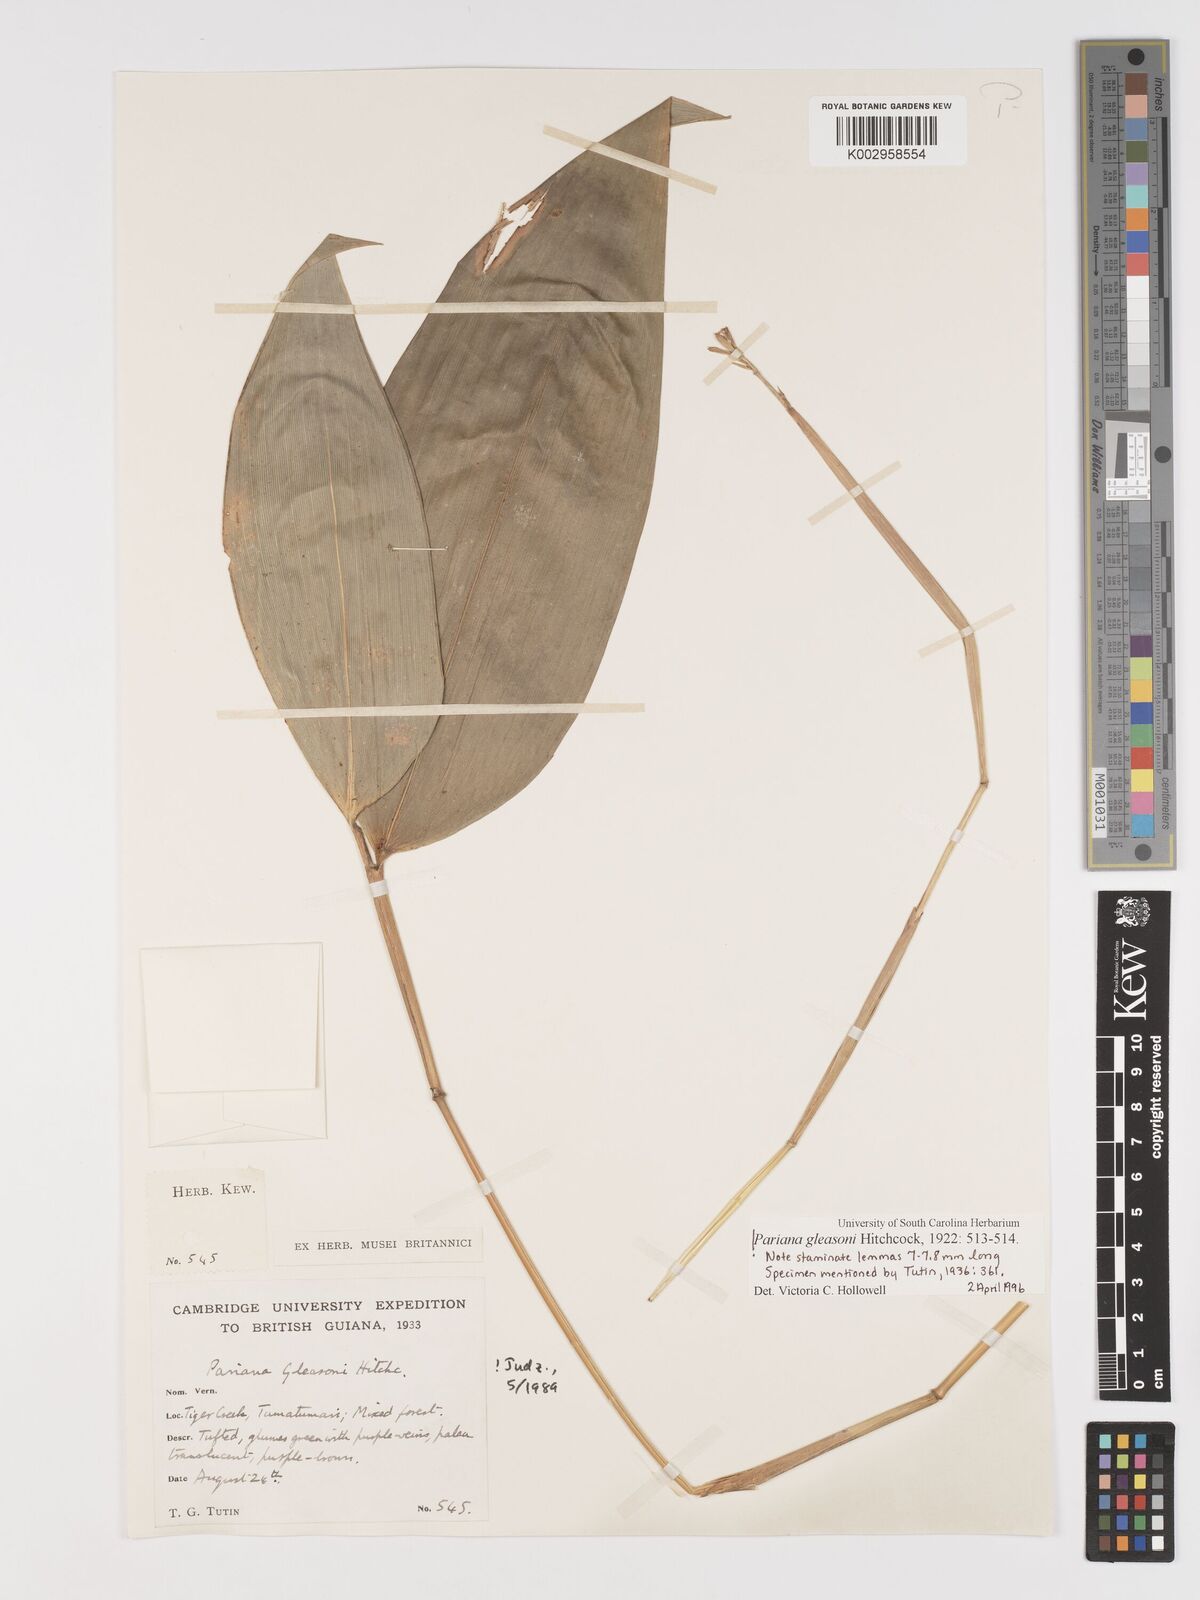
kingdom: Plantae
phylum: Tracheophyta
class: Liliopsida
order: Poales
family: Poaceae
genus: Pariana
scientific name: Pariana radiciflora
